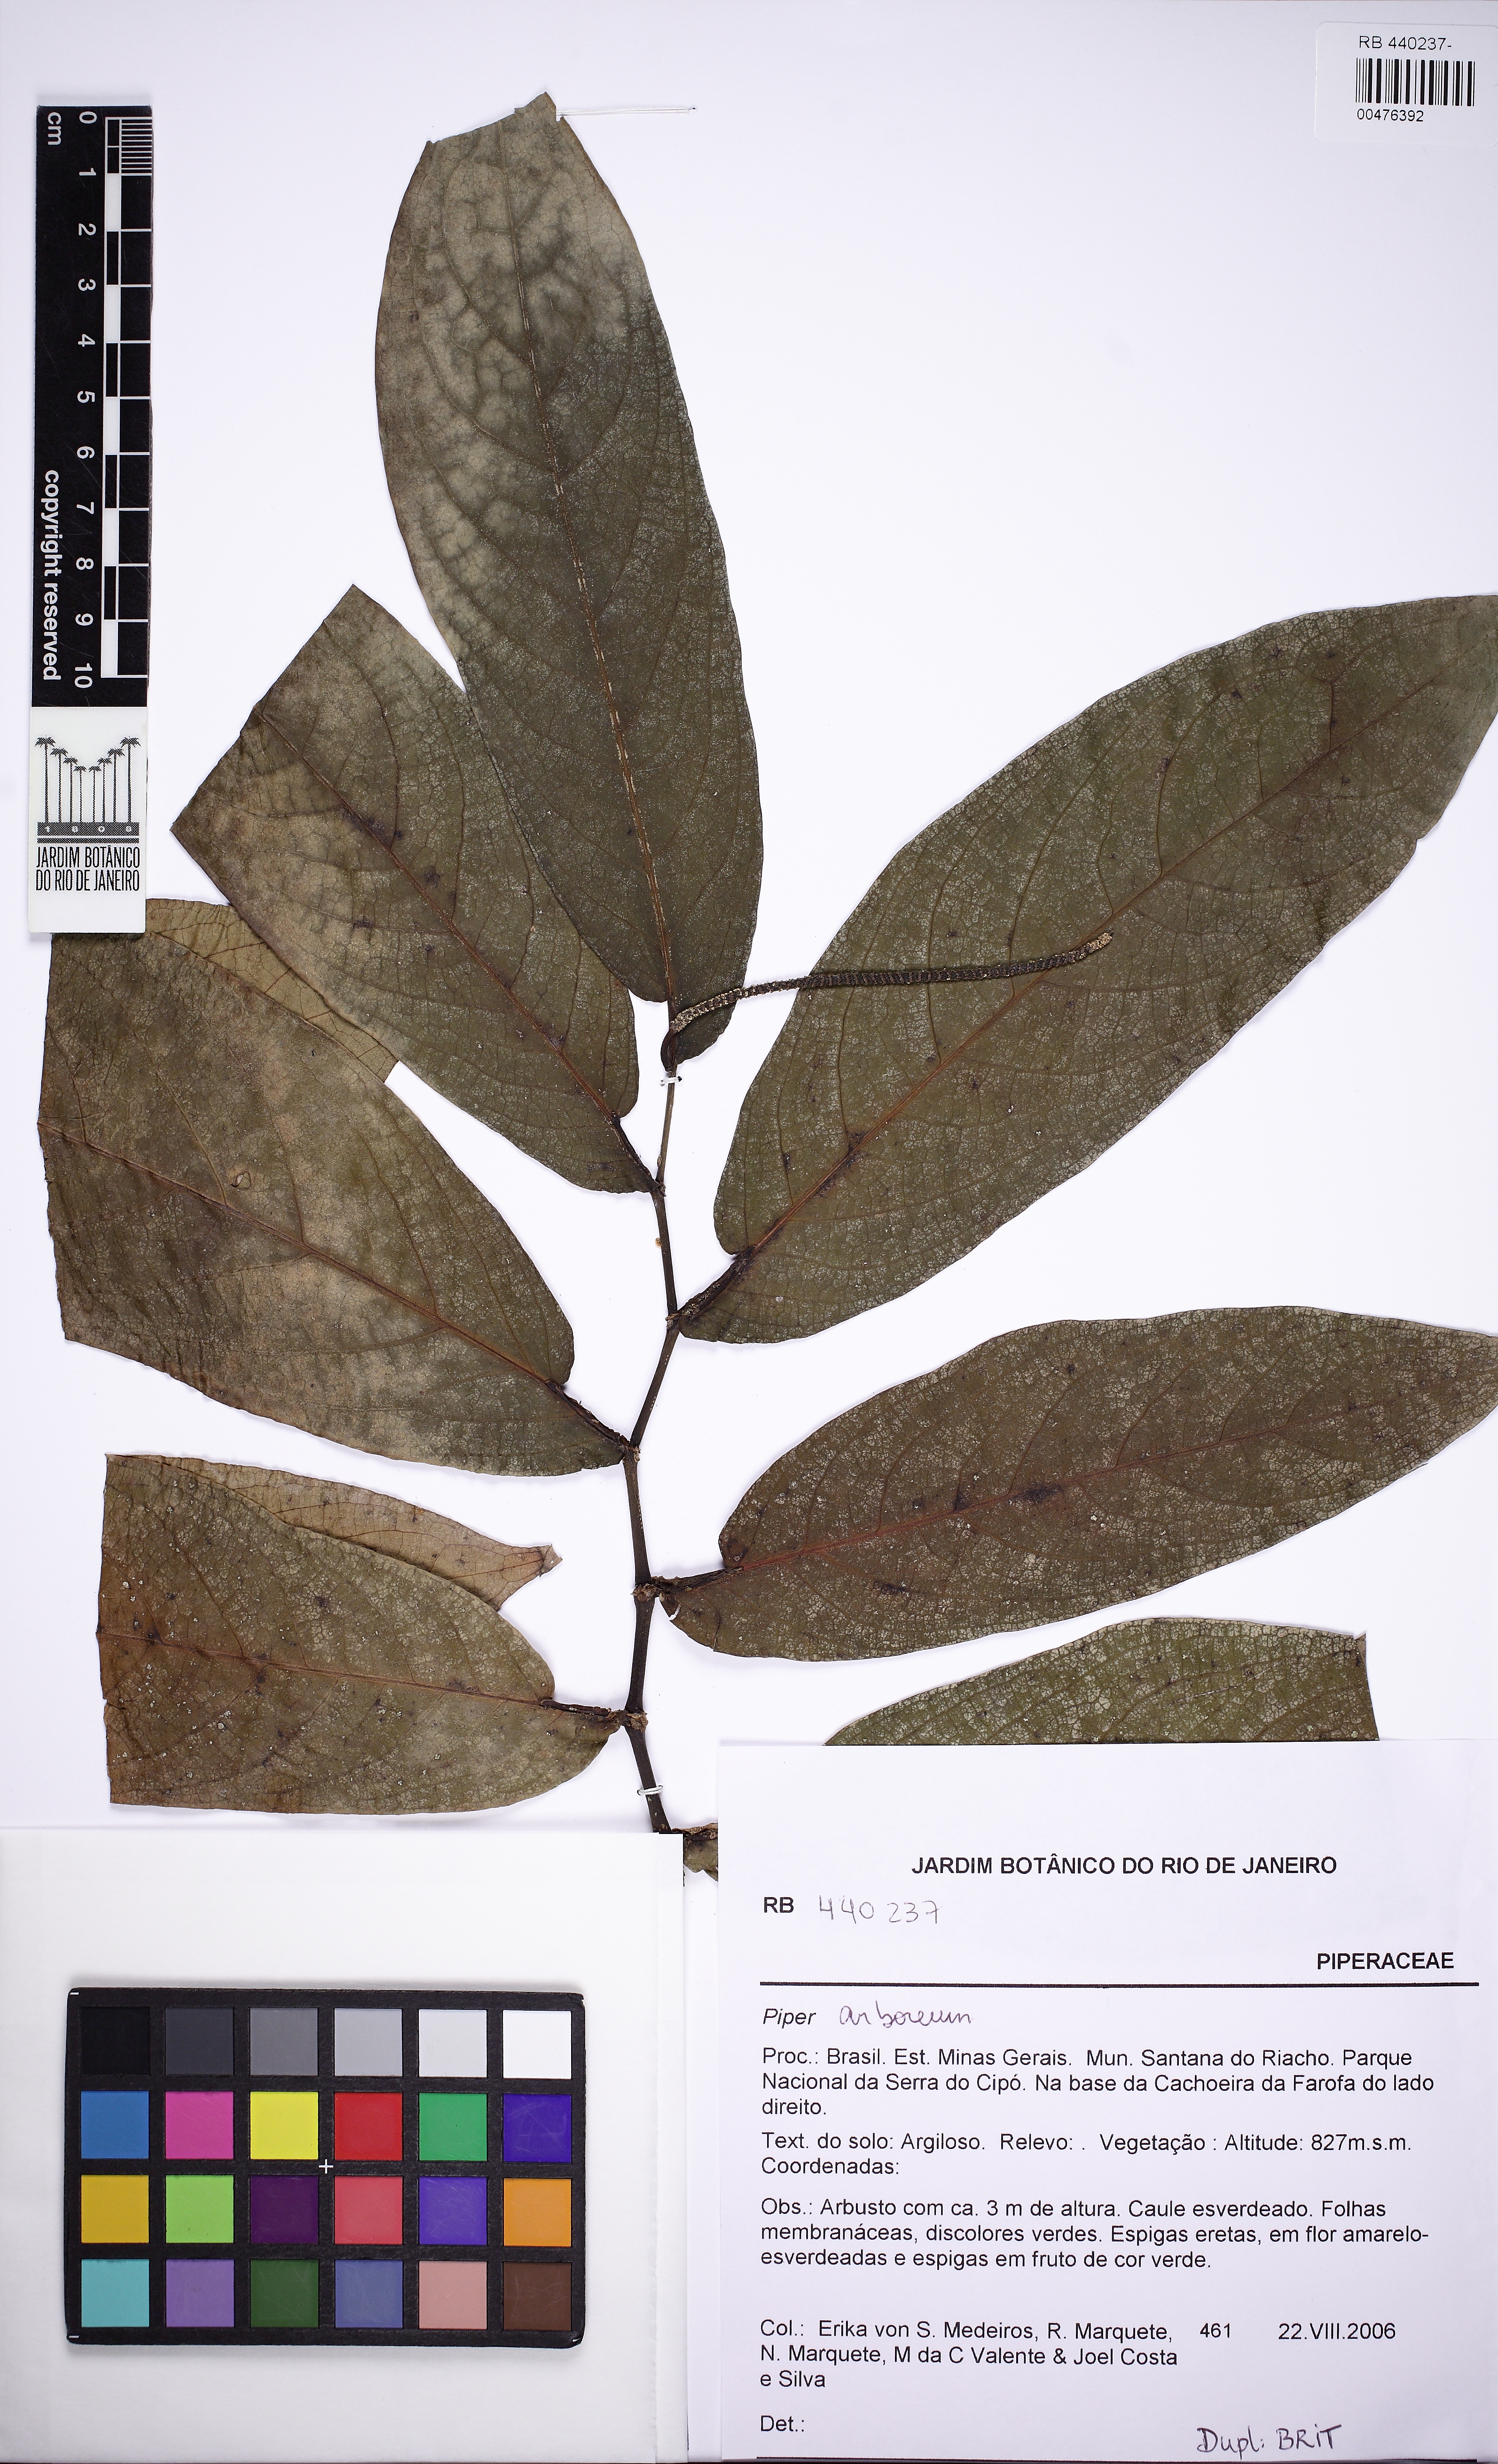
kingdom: Plantae
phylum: Tracheophyta
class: Magnoliopsida
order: Piperales
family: Piperaceae
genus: Piper
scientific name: Piper arboreum
